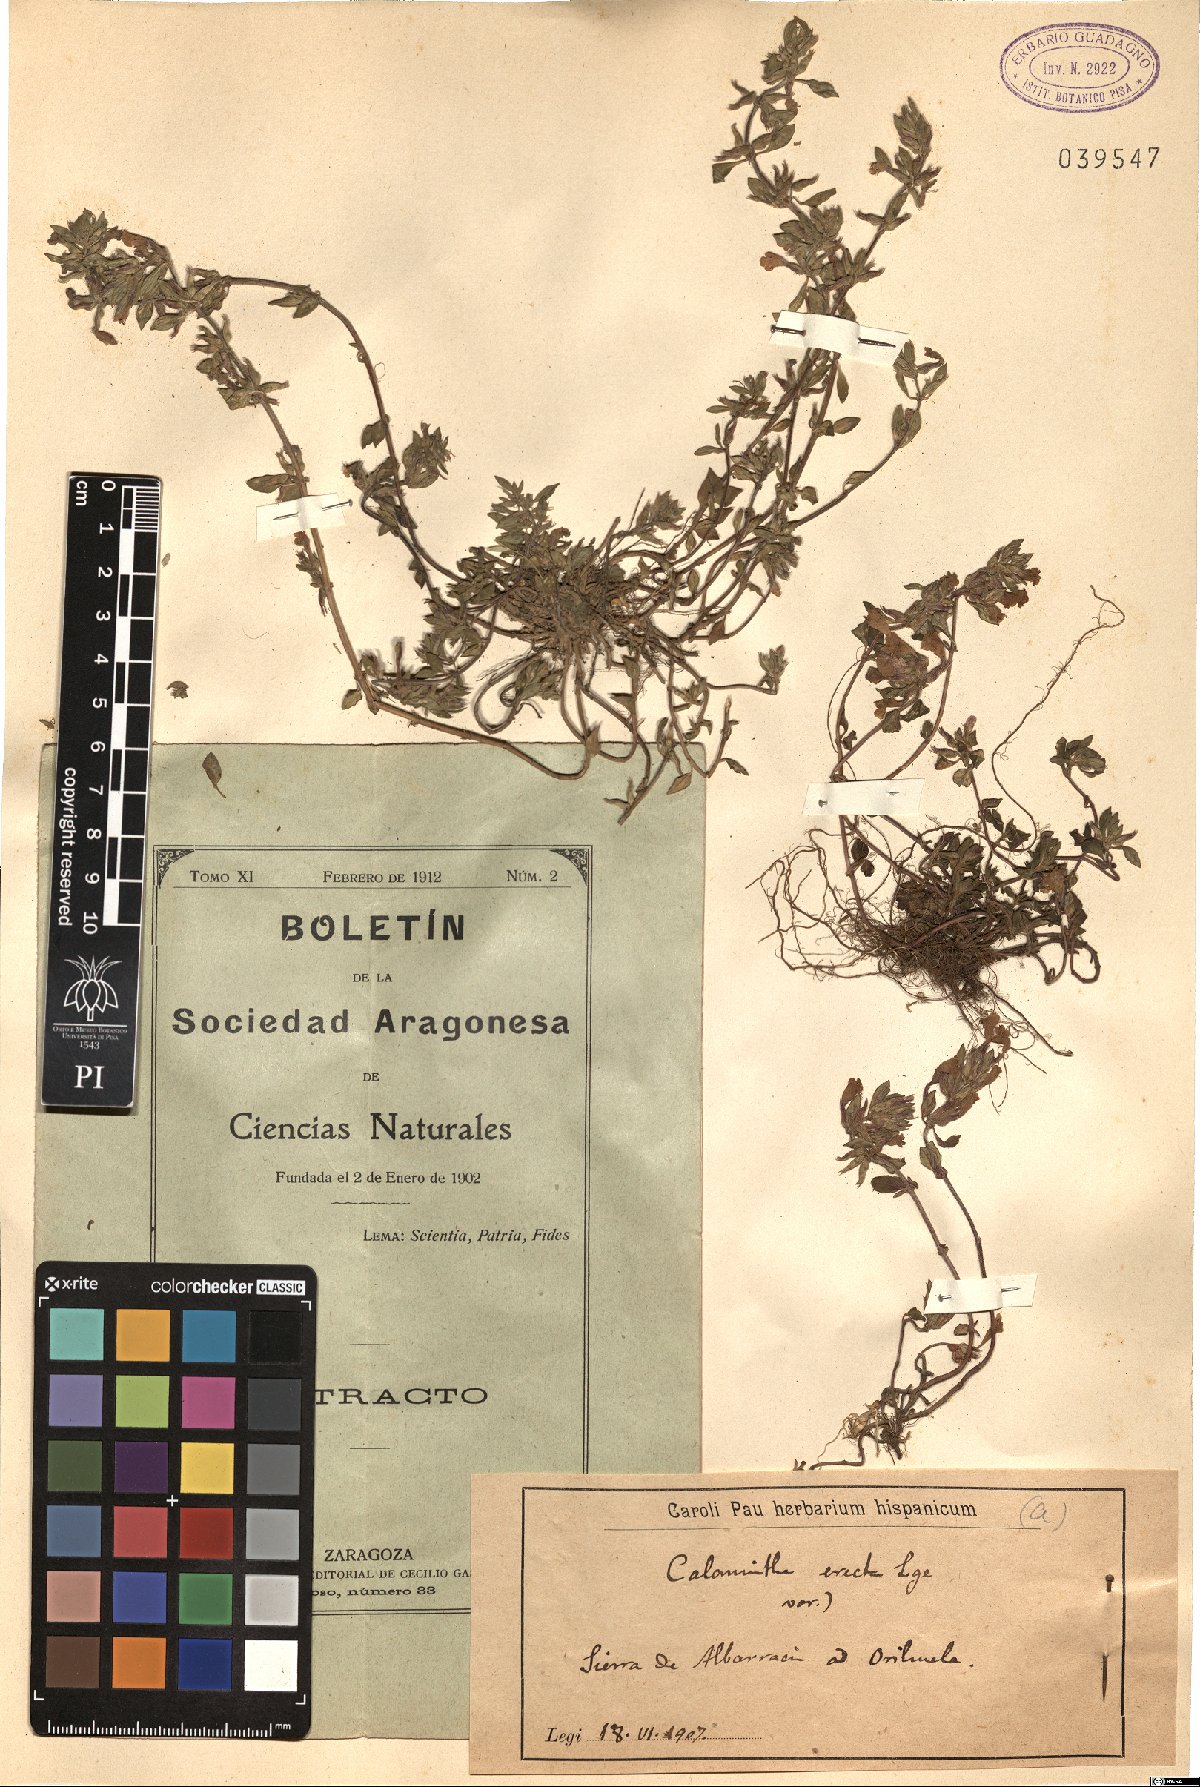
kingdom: Plantae
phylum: Tracheophyta
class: Magnoliopsida
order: Lamiales
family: Lamiaceae
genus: Clinopodium
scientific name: Clinopodium alpinum
